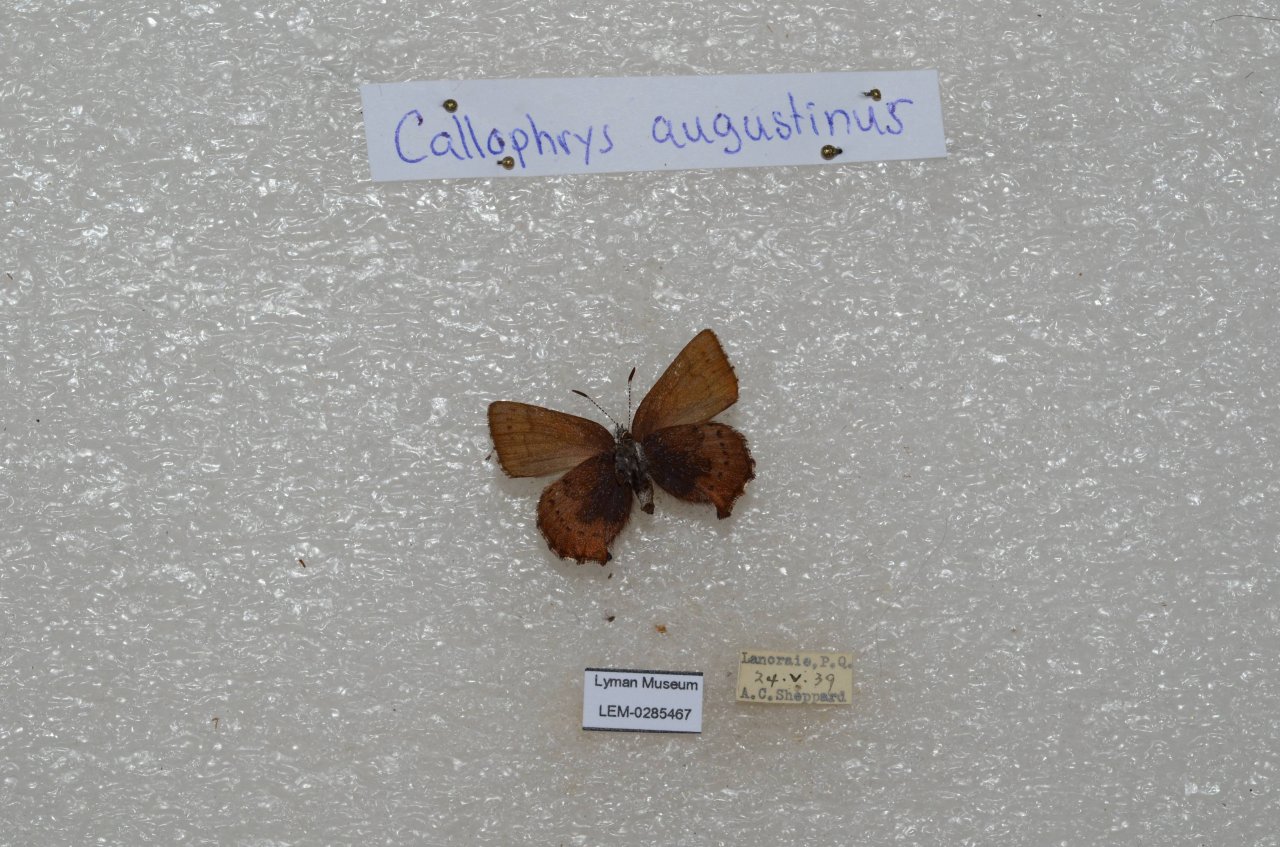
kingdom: Animalia
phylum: Arthropoda
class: Insecta
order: Lepidoptera
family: Lycaenidae
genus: Incisalia
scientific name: Incisalia irioides
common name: Brown Elfin
